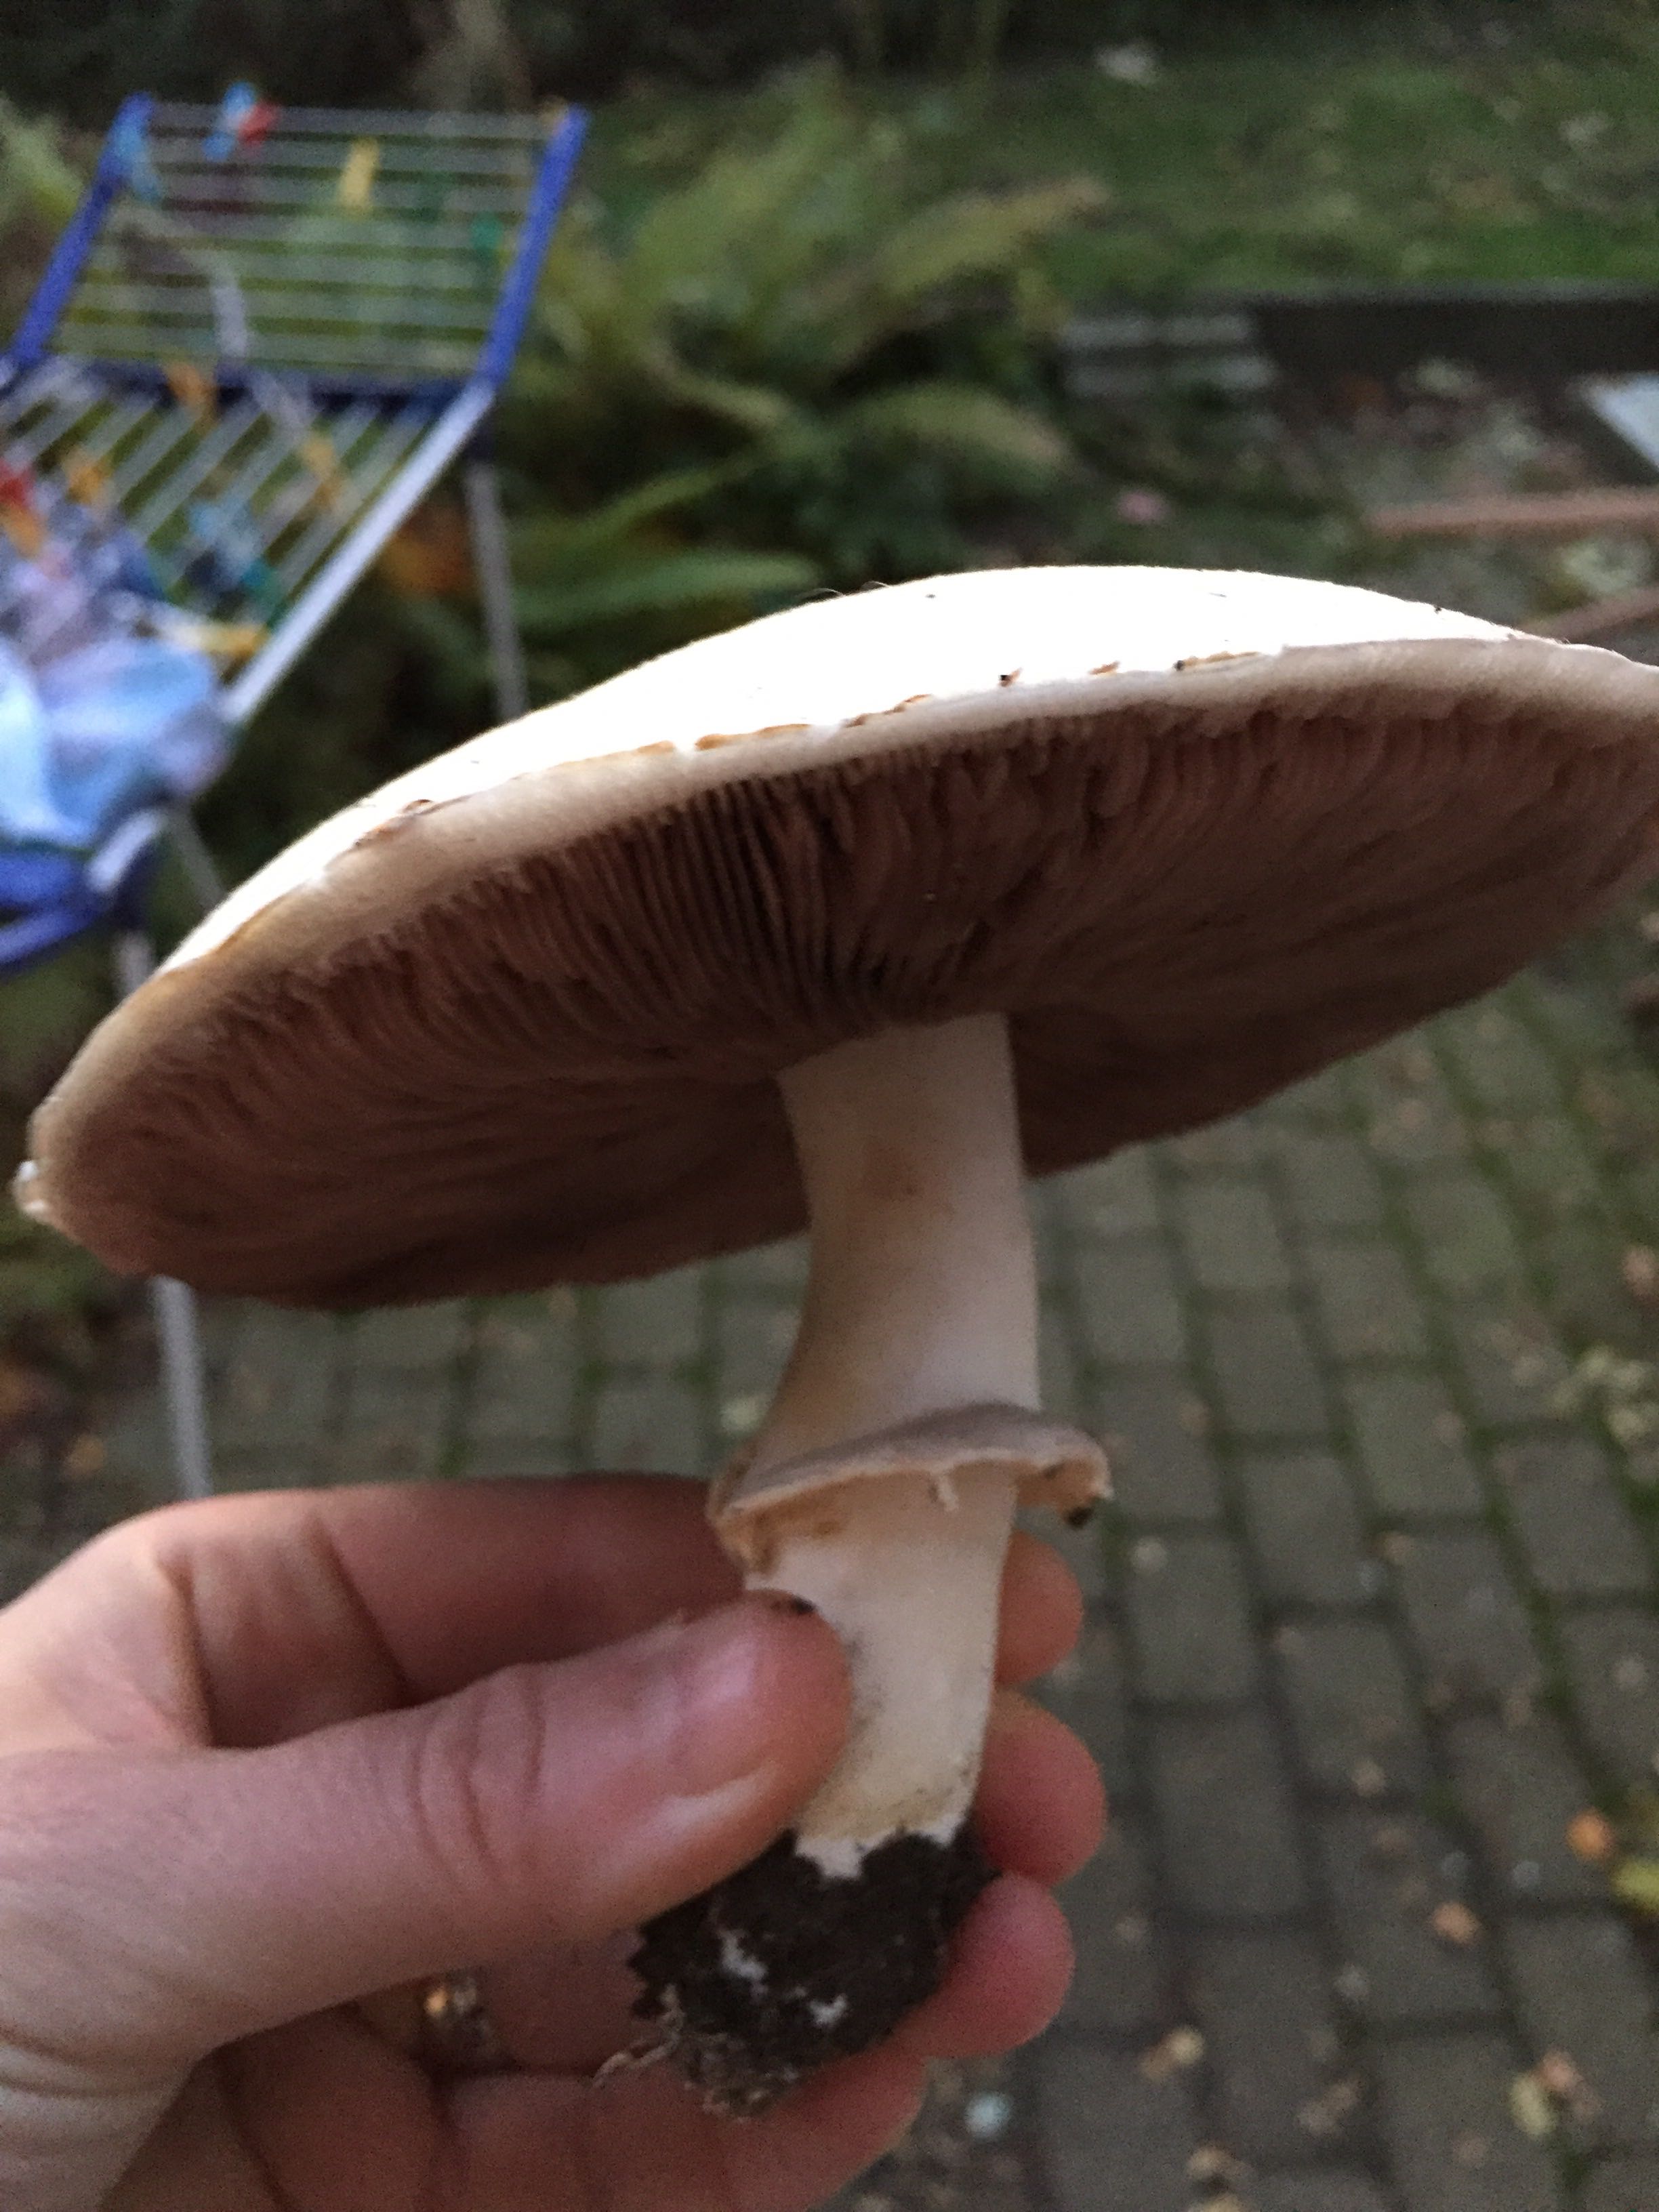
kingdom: Fungi
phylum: Basidiomycota
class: Agaricomycetes
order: Agaricales
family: Agaricaceae
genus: Agaricus
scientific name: Agaricus arvensis
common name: ager-champignon
